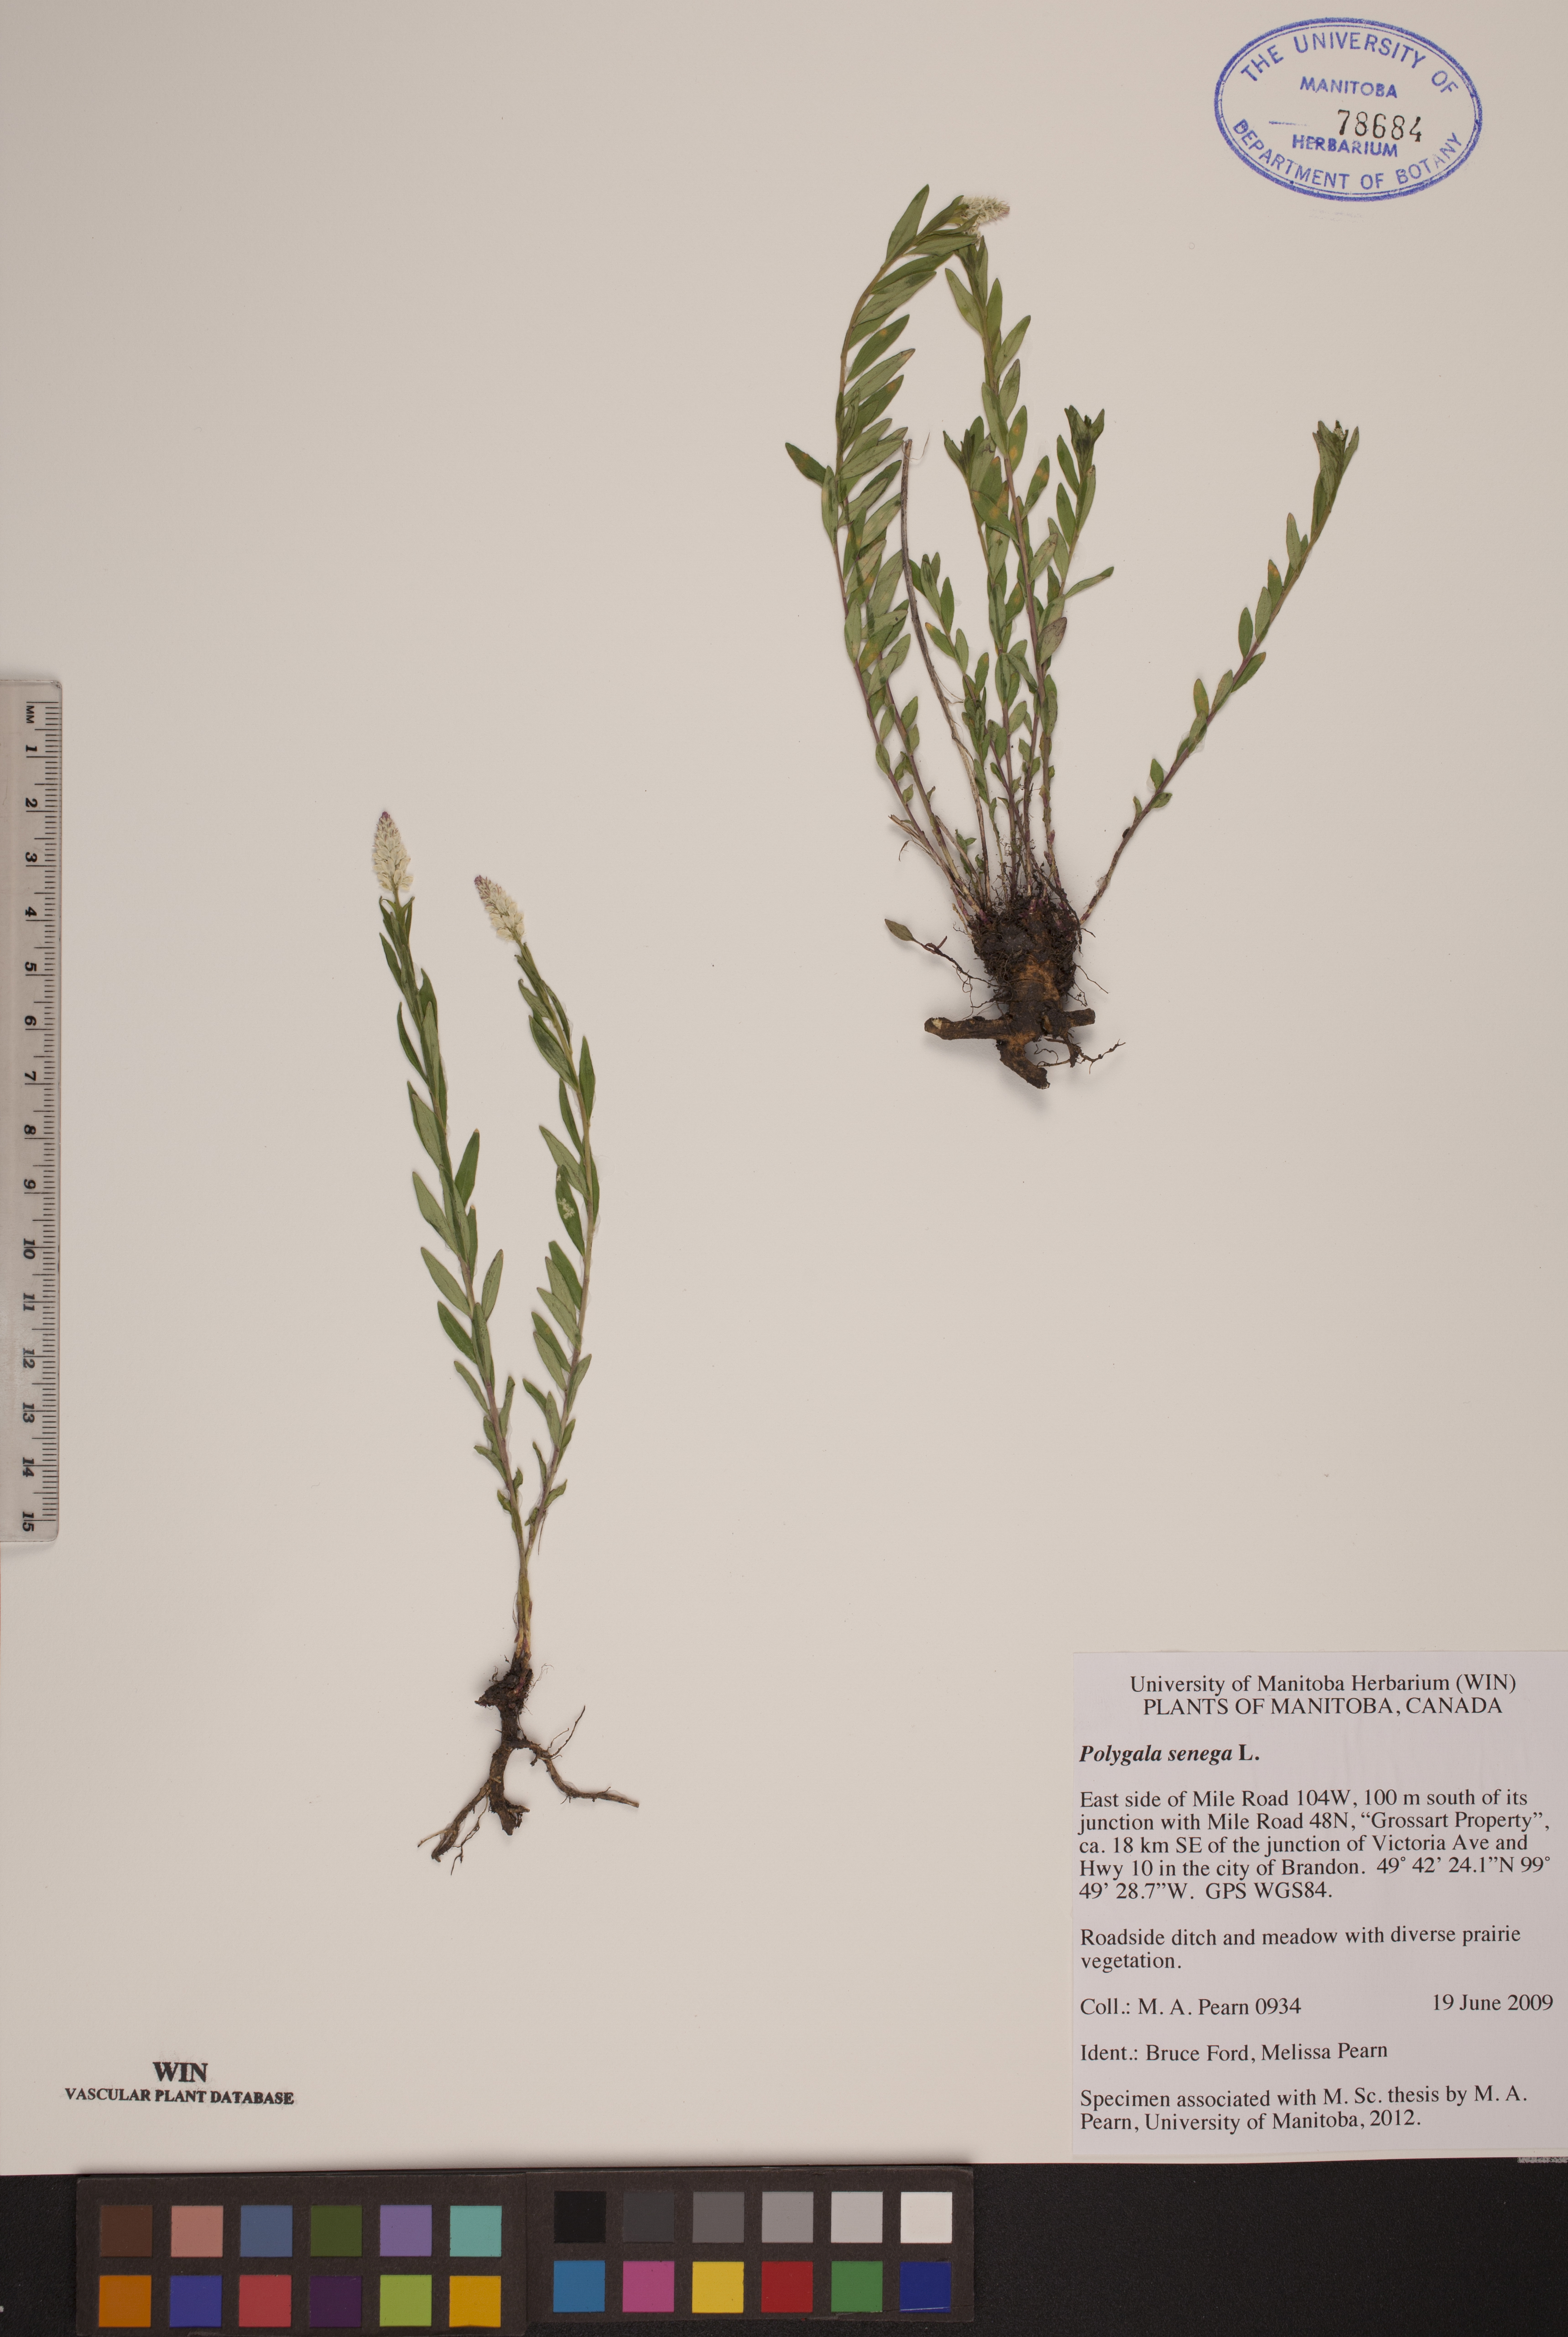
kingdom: Plantae
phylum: Tracheophyta
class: Magnoliopsida
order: Fabales
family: Polygalaceae
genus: Polygala
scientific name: Polygala senega
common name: Seneca snakeroot
